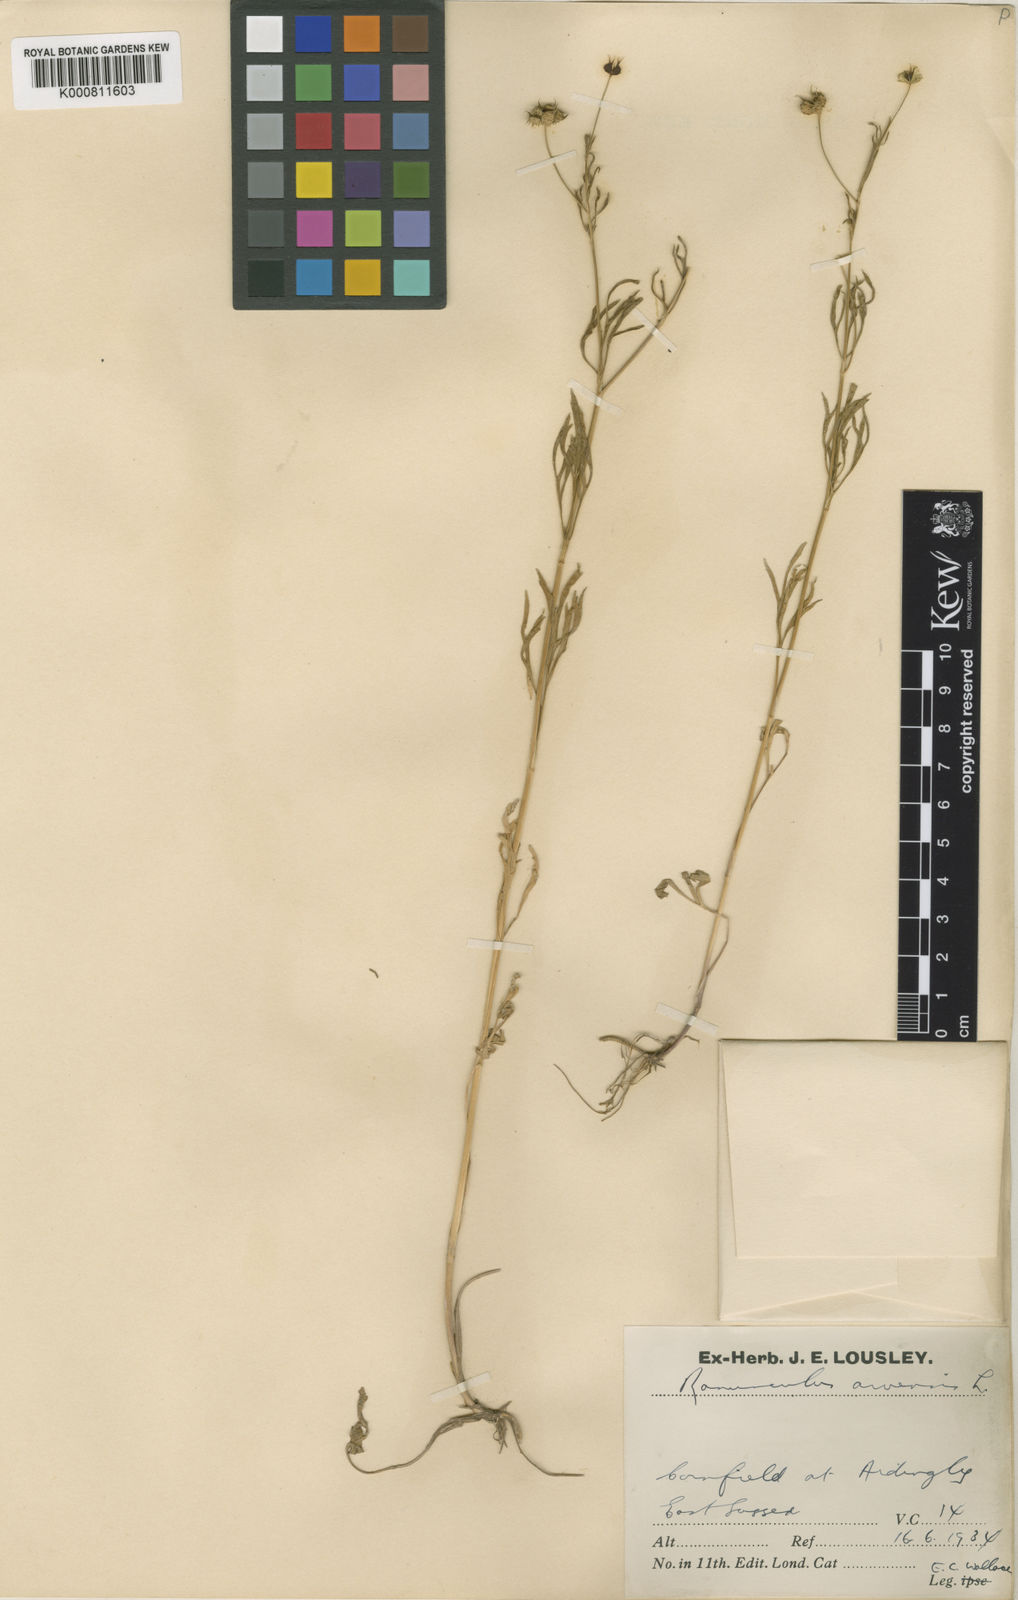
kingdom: Plantae
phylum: Tracheophyta
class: Magnoliopsida
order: Ranunculales
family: Ranunculaceae
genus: Ranunculus
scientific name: Ranunculus arvensis
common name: Corn buttercup
